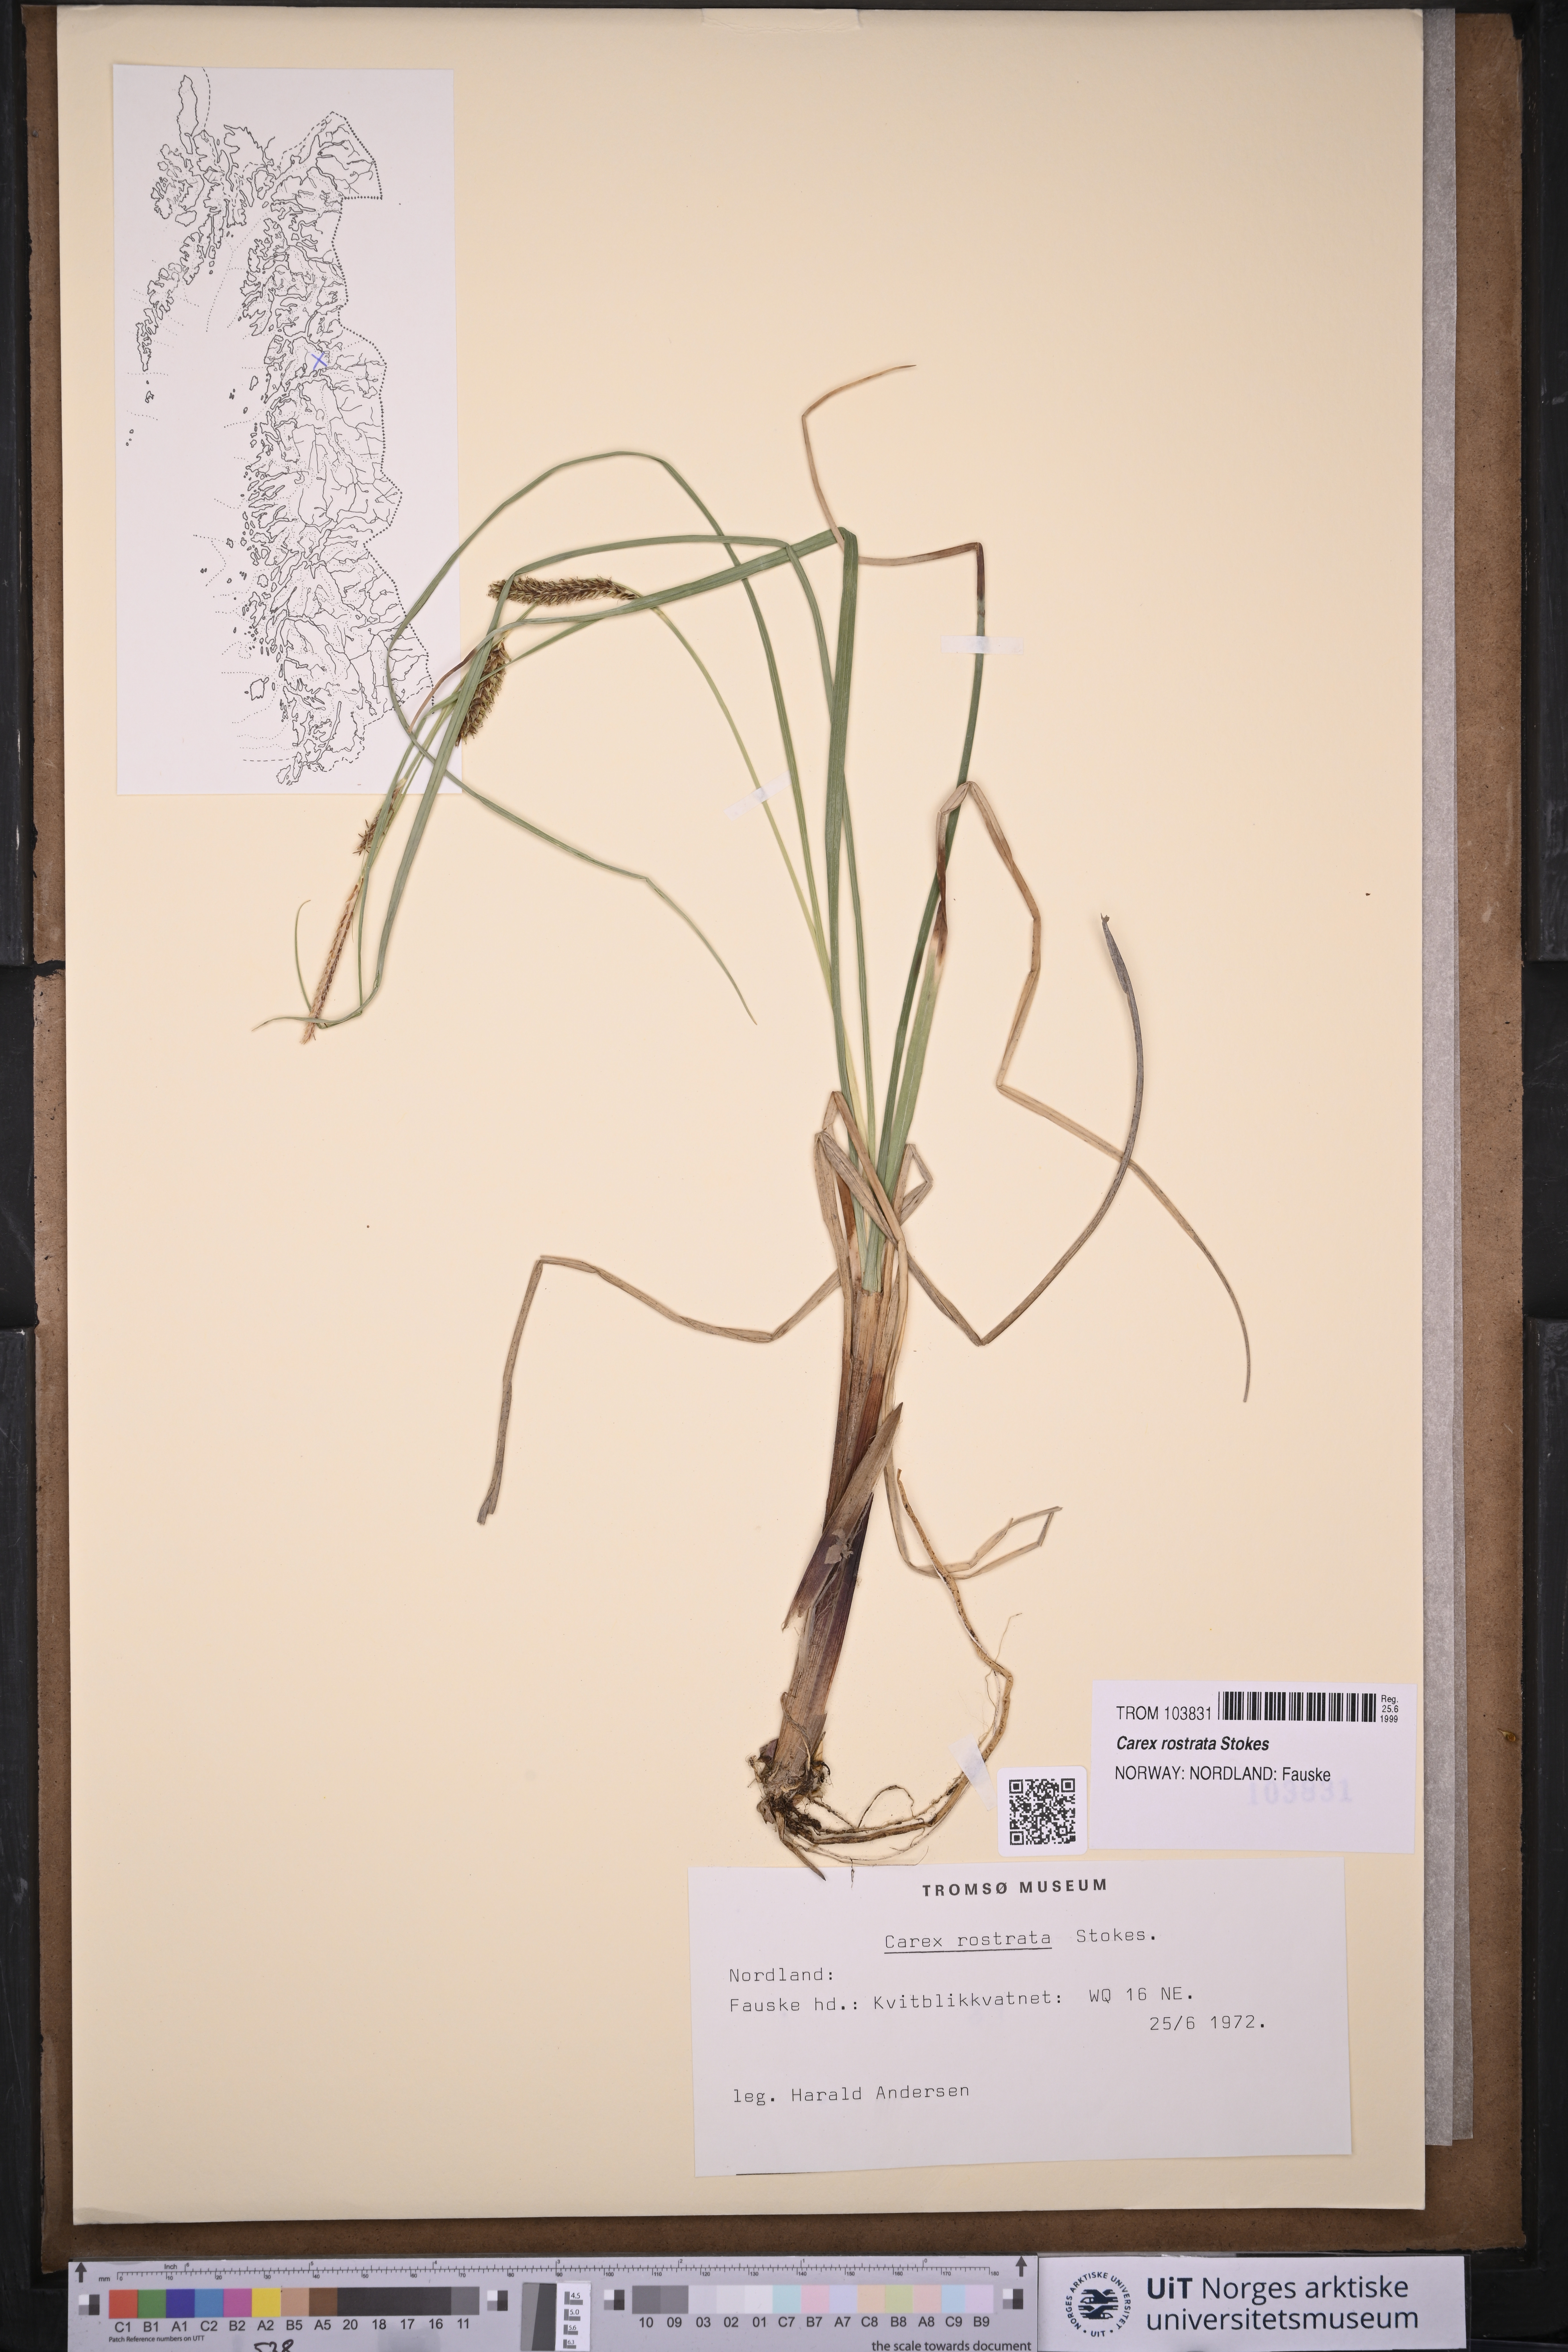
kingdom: Plantae
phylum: Tracheophyta
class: Liliopsida
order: Poales
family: Cyperaceae
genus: Carex
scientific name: Carex rostrata
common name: Bottle sedge
